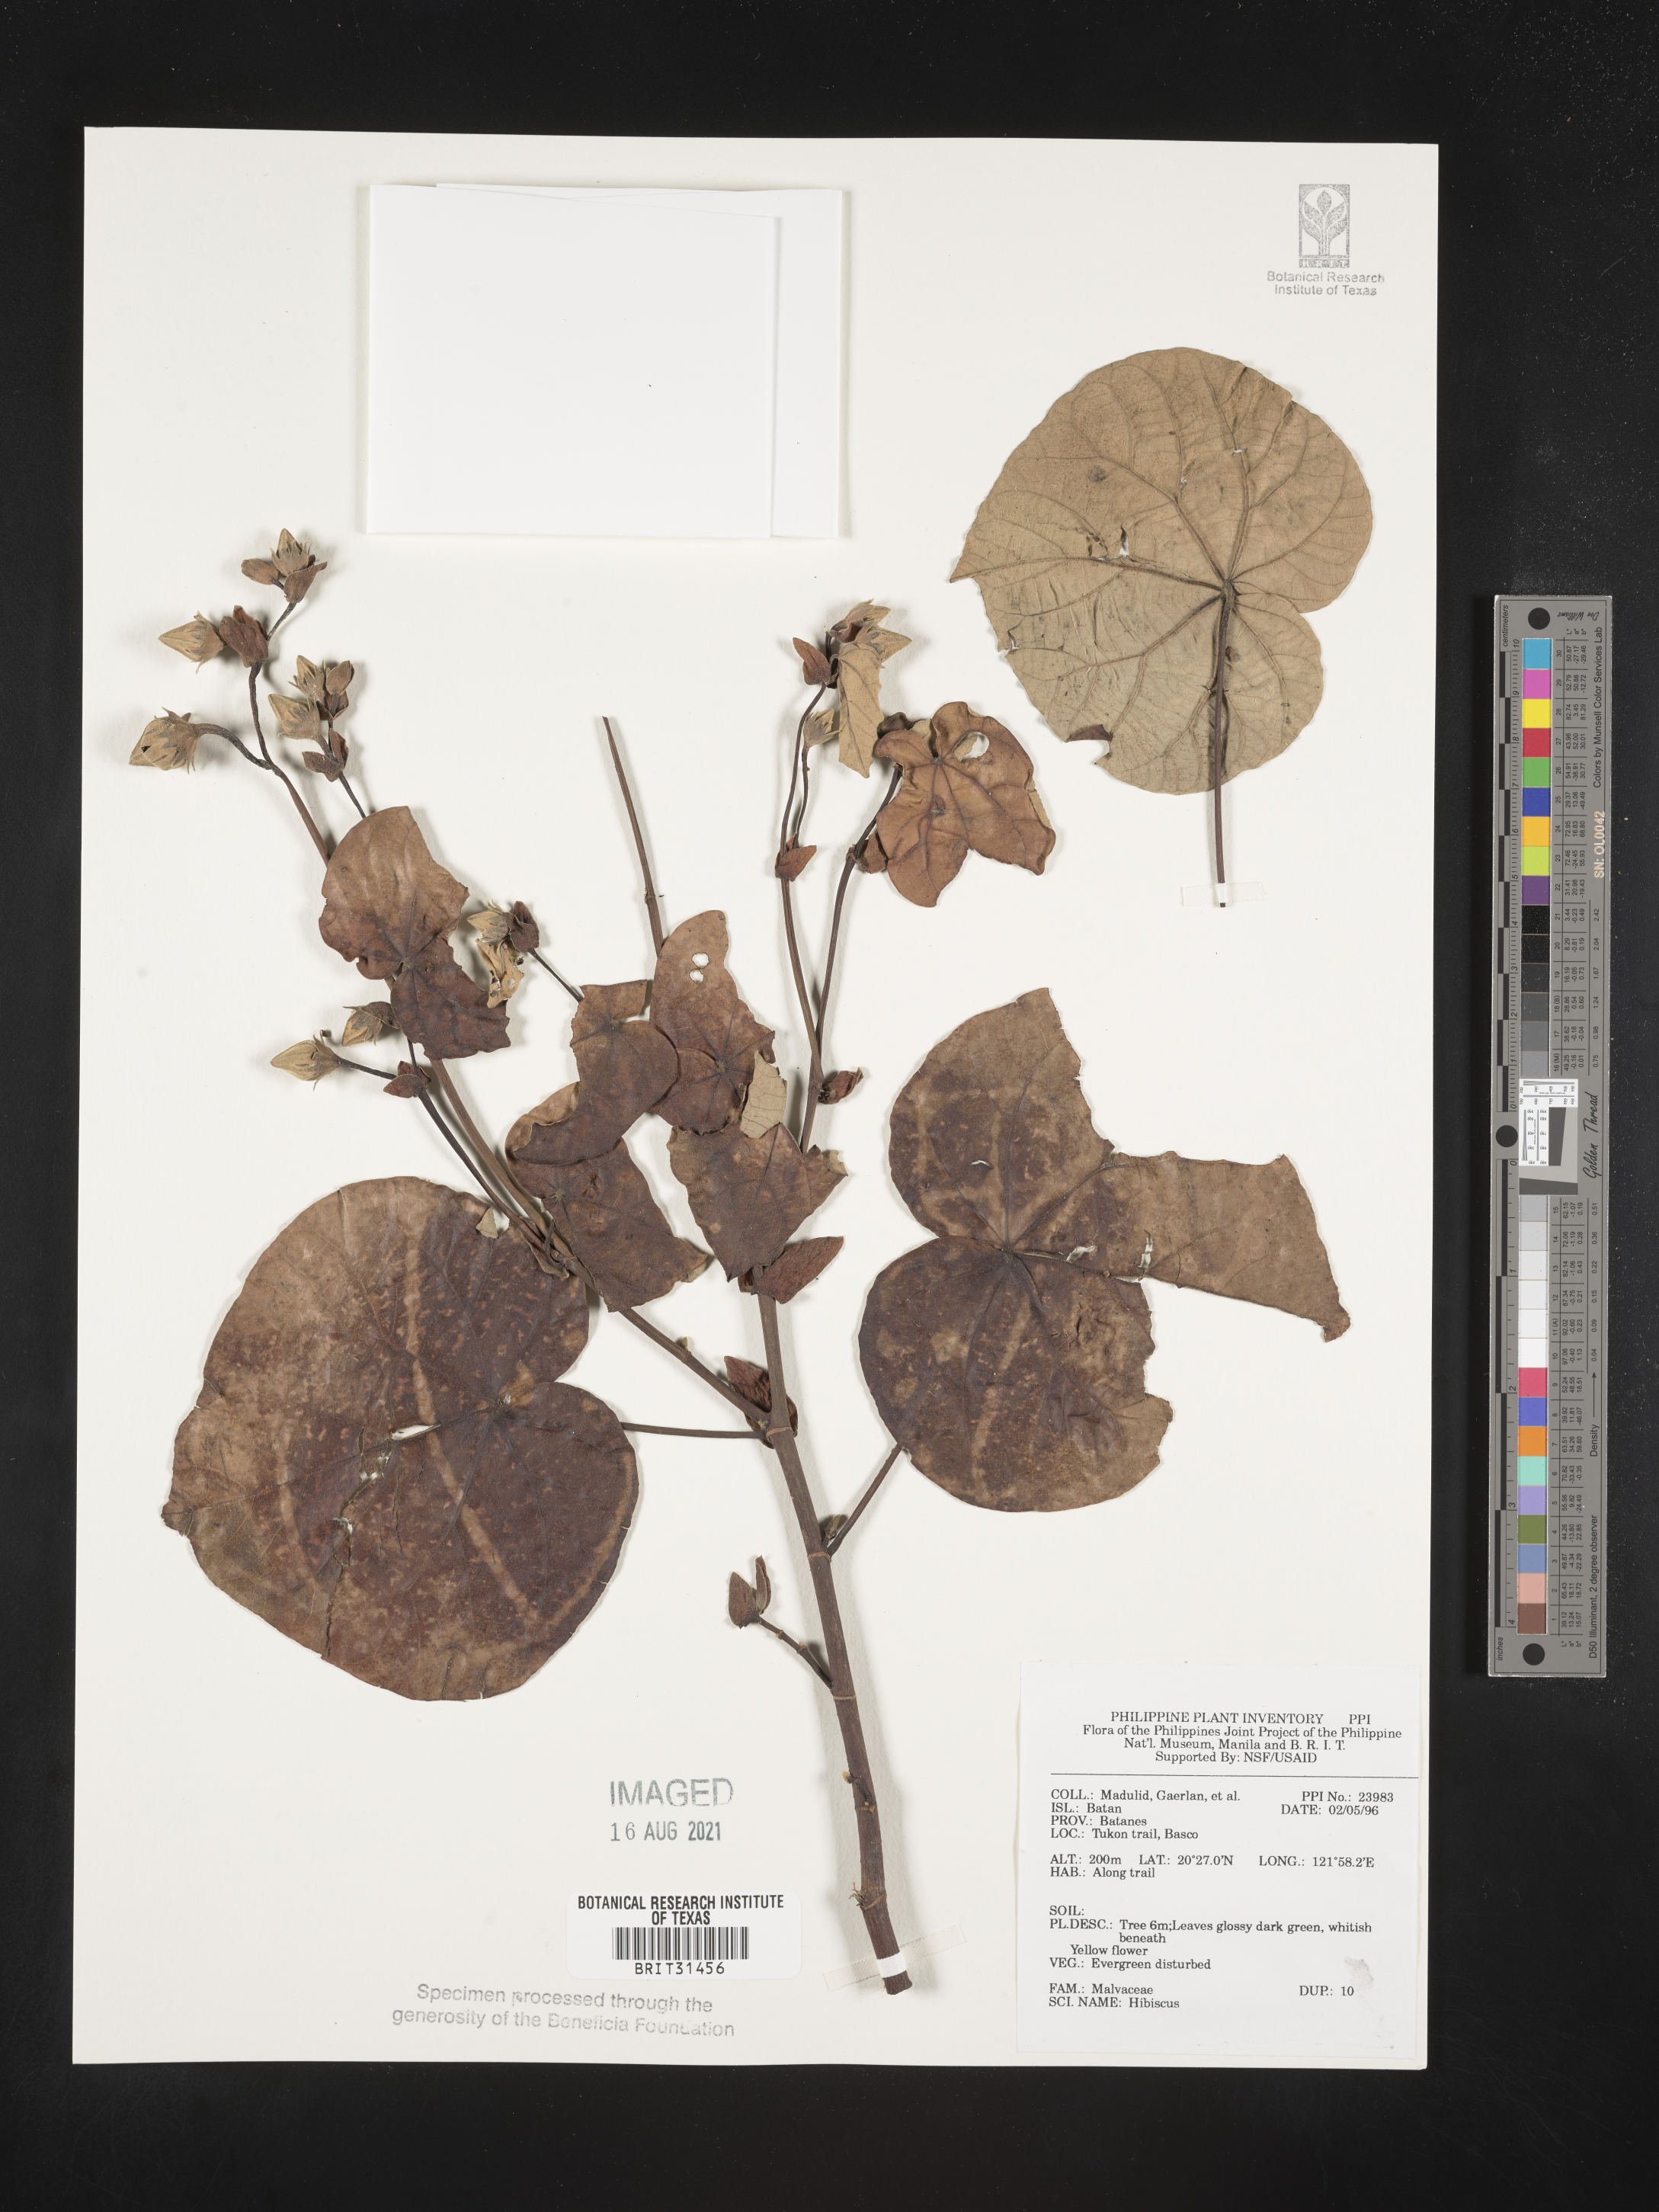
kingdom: Plantae
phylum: Tracheophyta
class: Magnoliopsida
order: Malvales
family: Malvaceae
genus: Hibiscus
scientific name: Hibiscus
